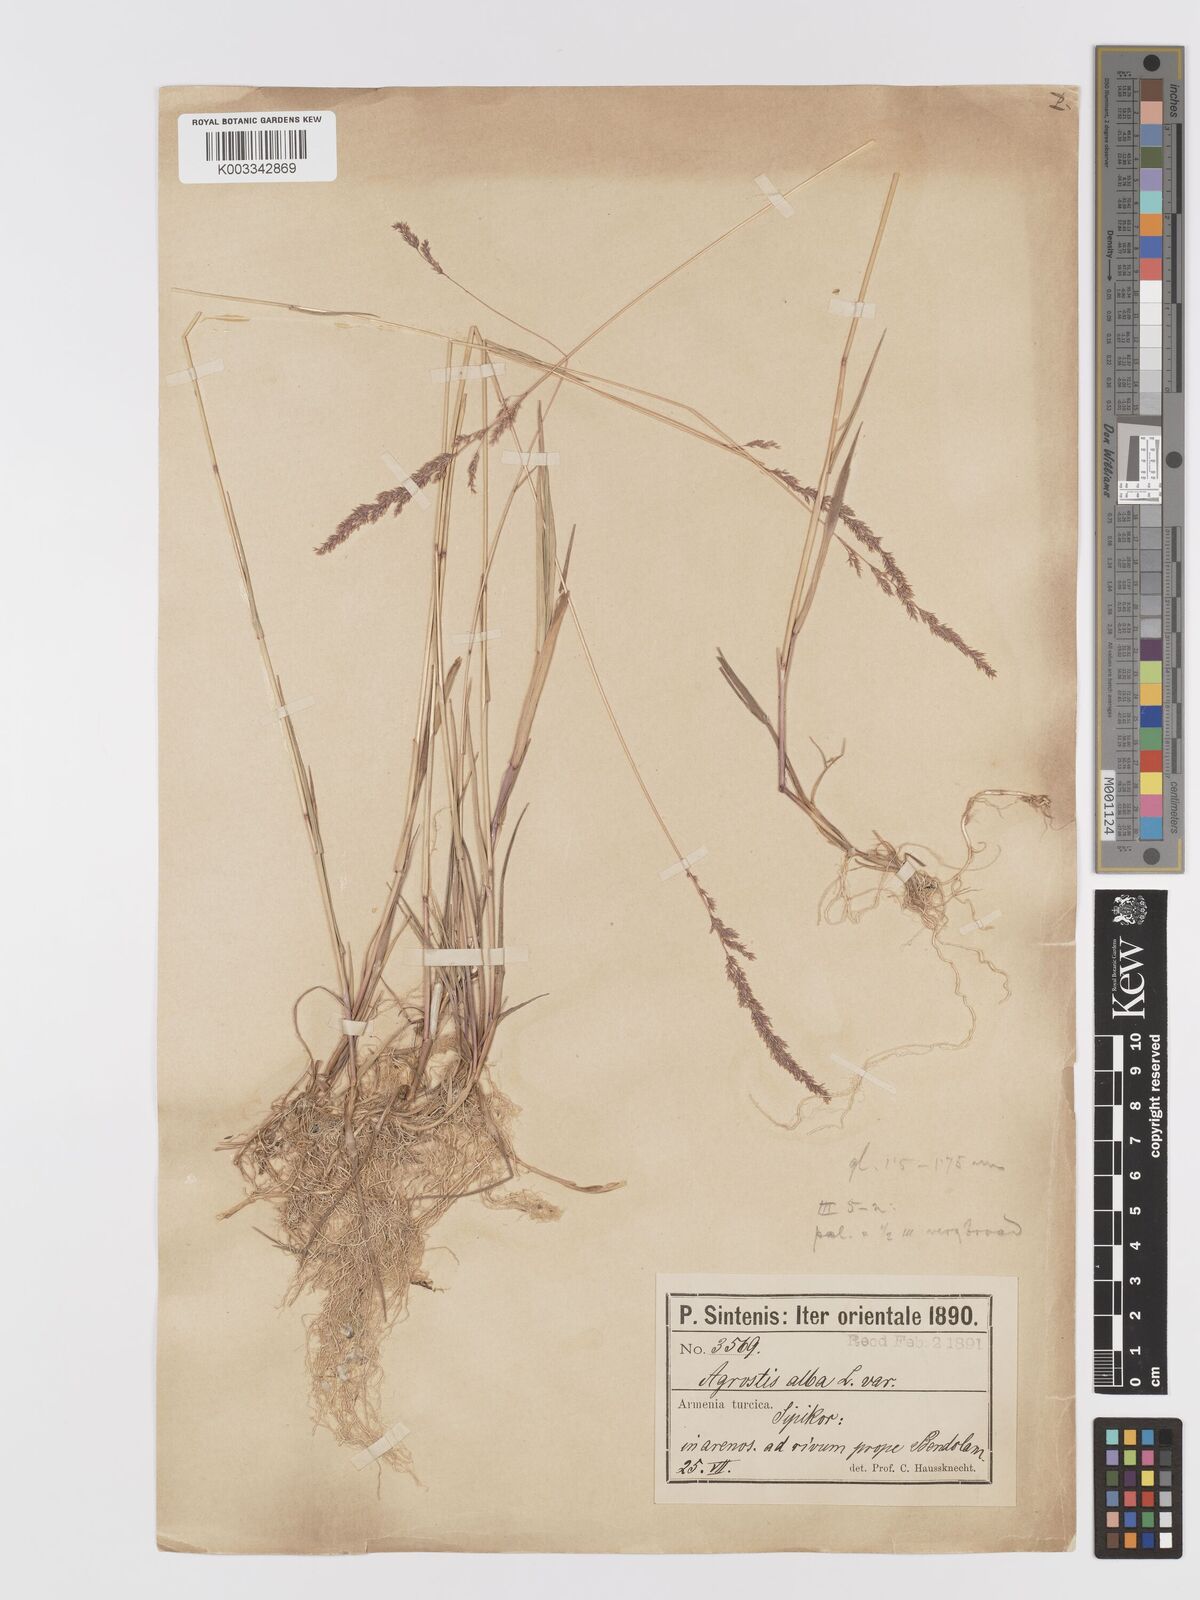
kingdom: Plantae
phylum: Tracheophyta
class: Liliopsida
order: Poales
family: Poaceae
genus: Agrostis
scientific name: Agrostis
